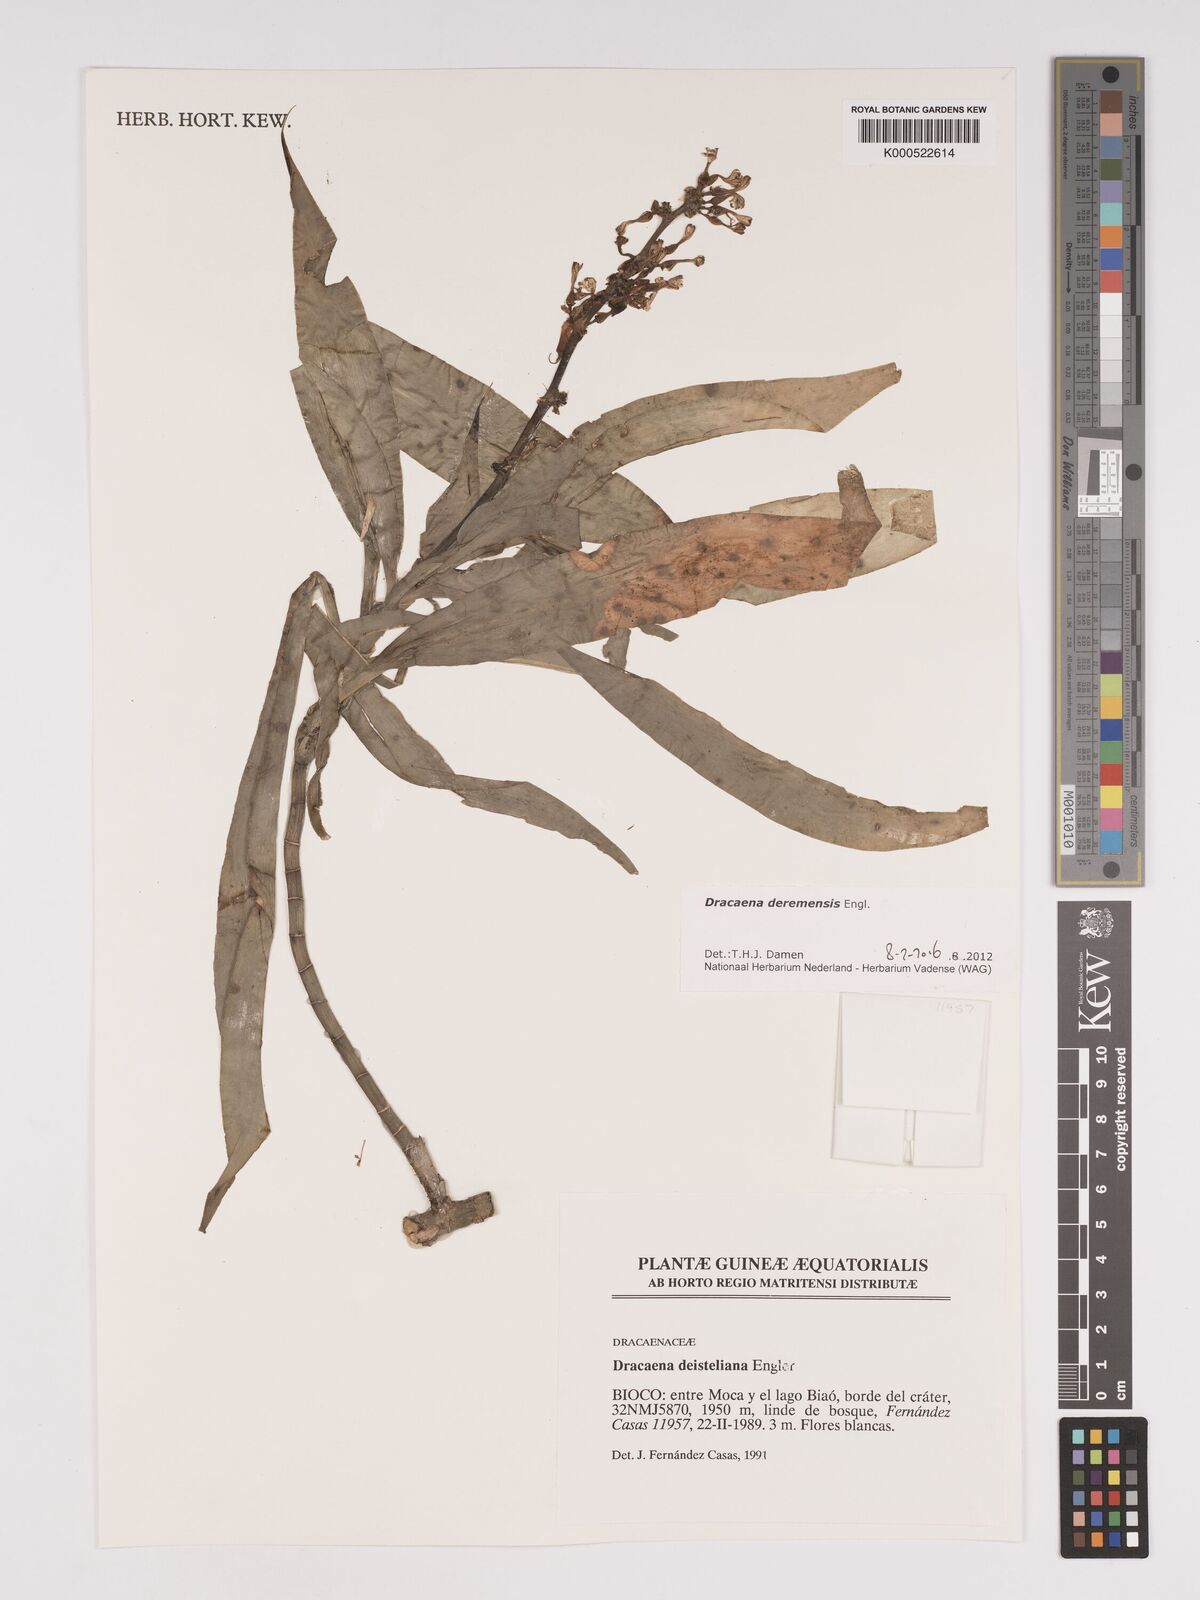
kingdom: Plantae
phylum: Tracheophyta
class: Liliopsida
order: Asparagales
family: Asparagaceae
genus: Dracaena
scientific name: Dracaena fragrans
